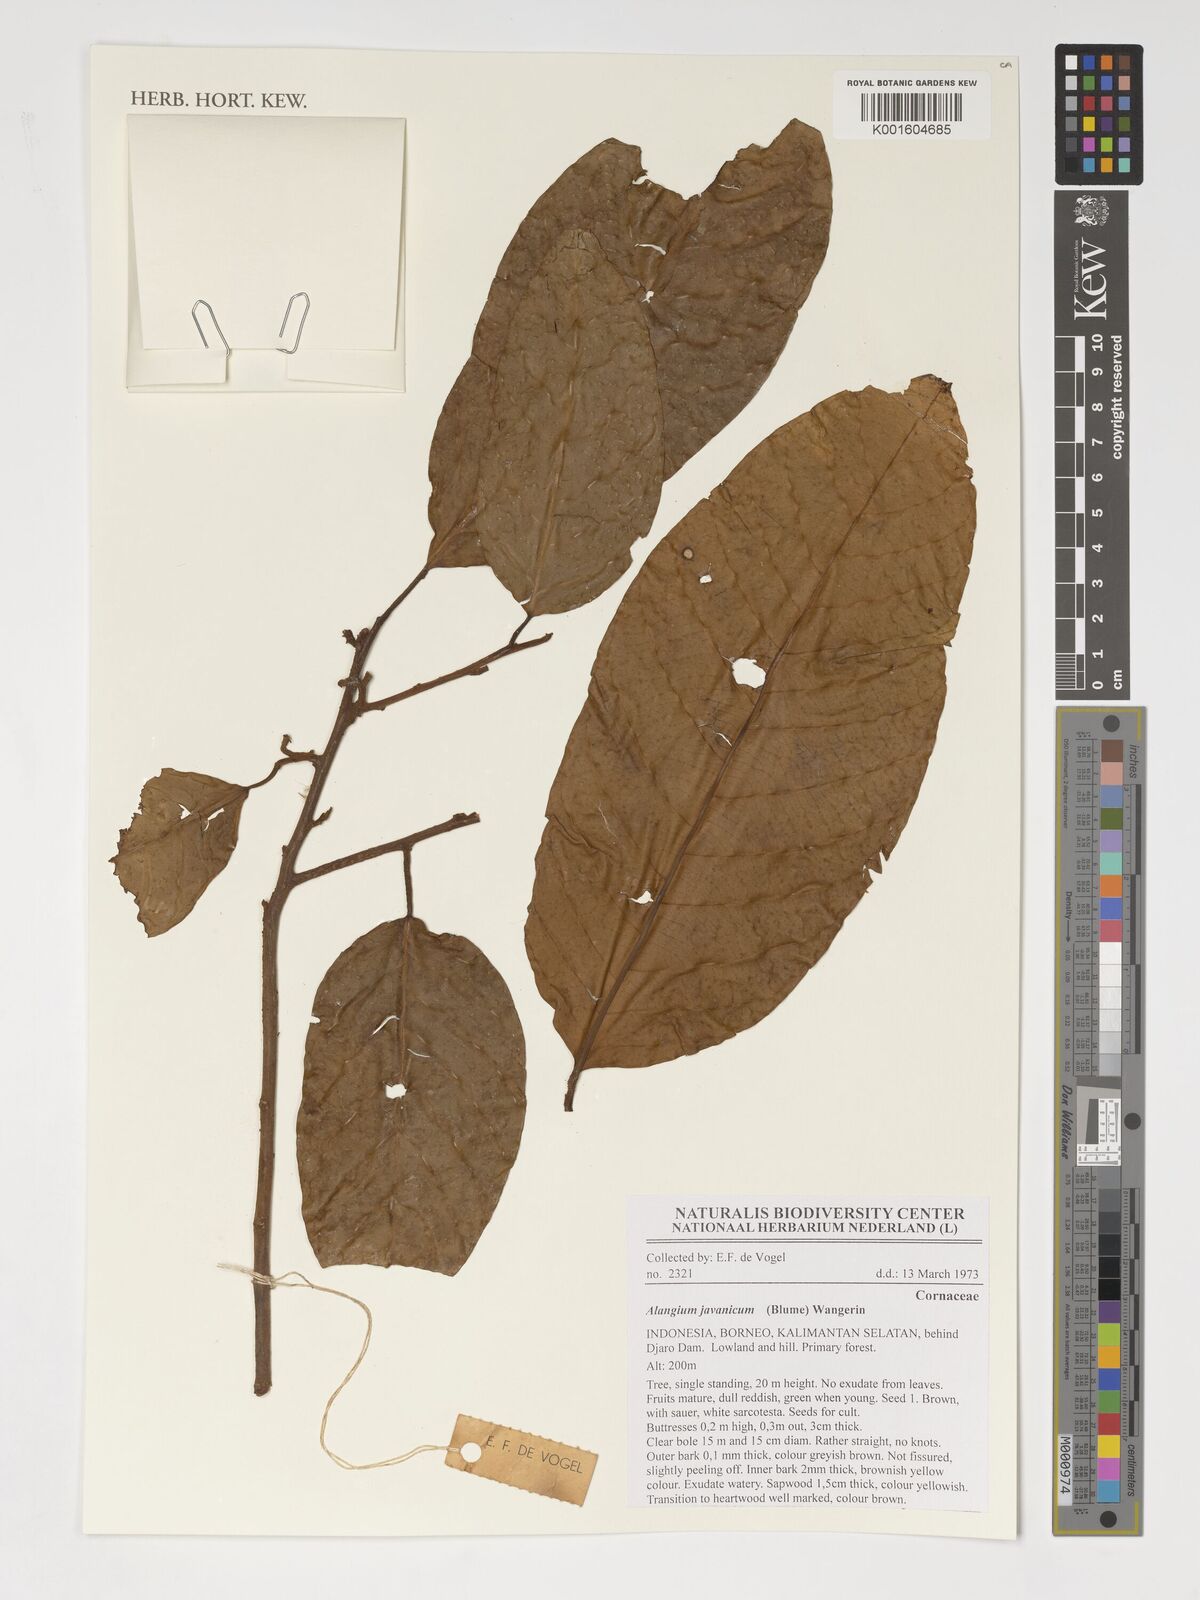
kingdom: Plantae
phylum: Tracheophyta
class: Magnoliopsida
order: Cornales
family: Cornaceae
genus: Alangium
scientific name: Alangium javanicum
